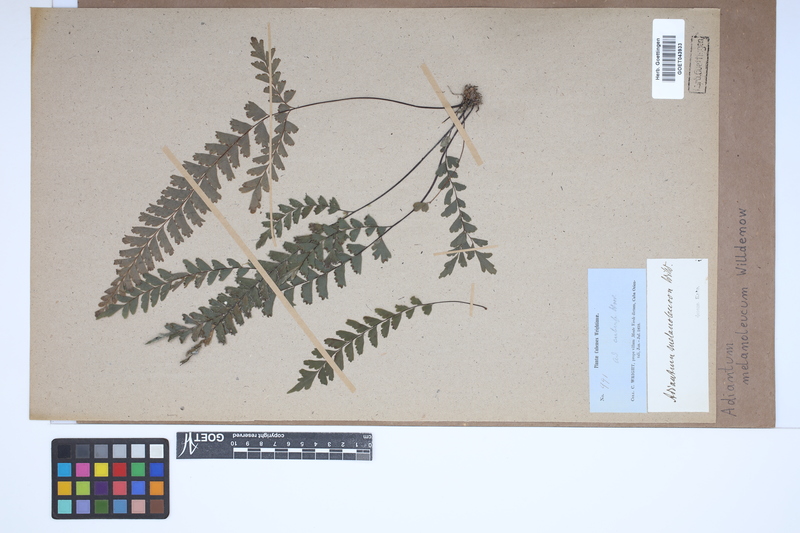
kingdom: Plantae
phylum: Tracheophyta
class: Polypodiopsida
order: Polypodiales
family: Pteridaceae
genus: Adiantum
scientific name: Adiantum melanoleucum
